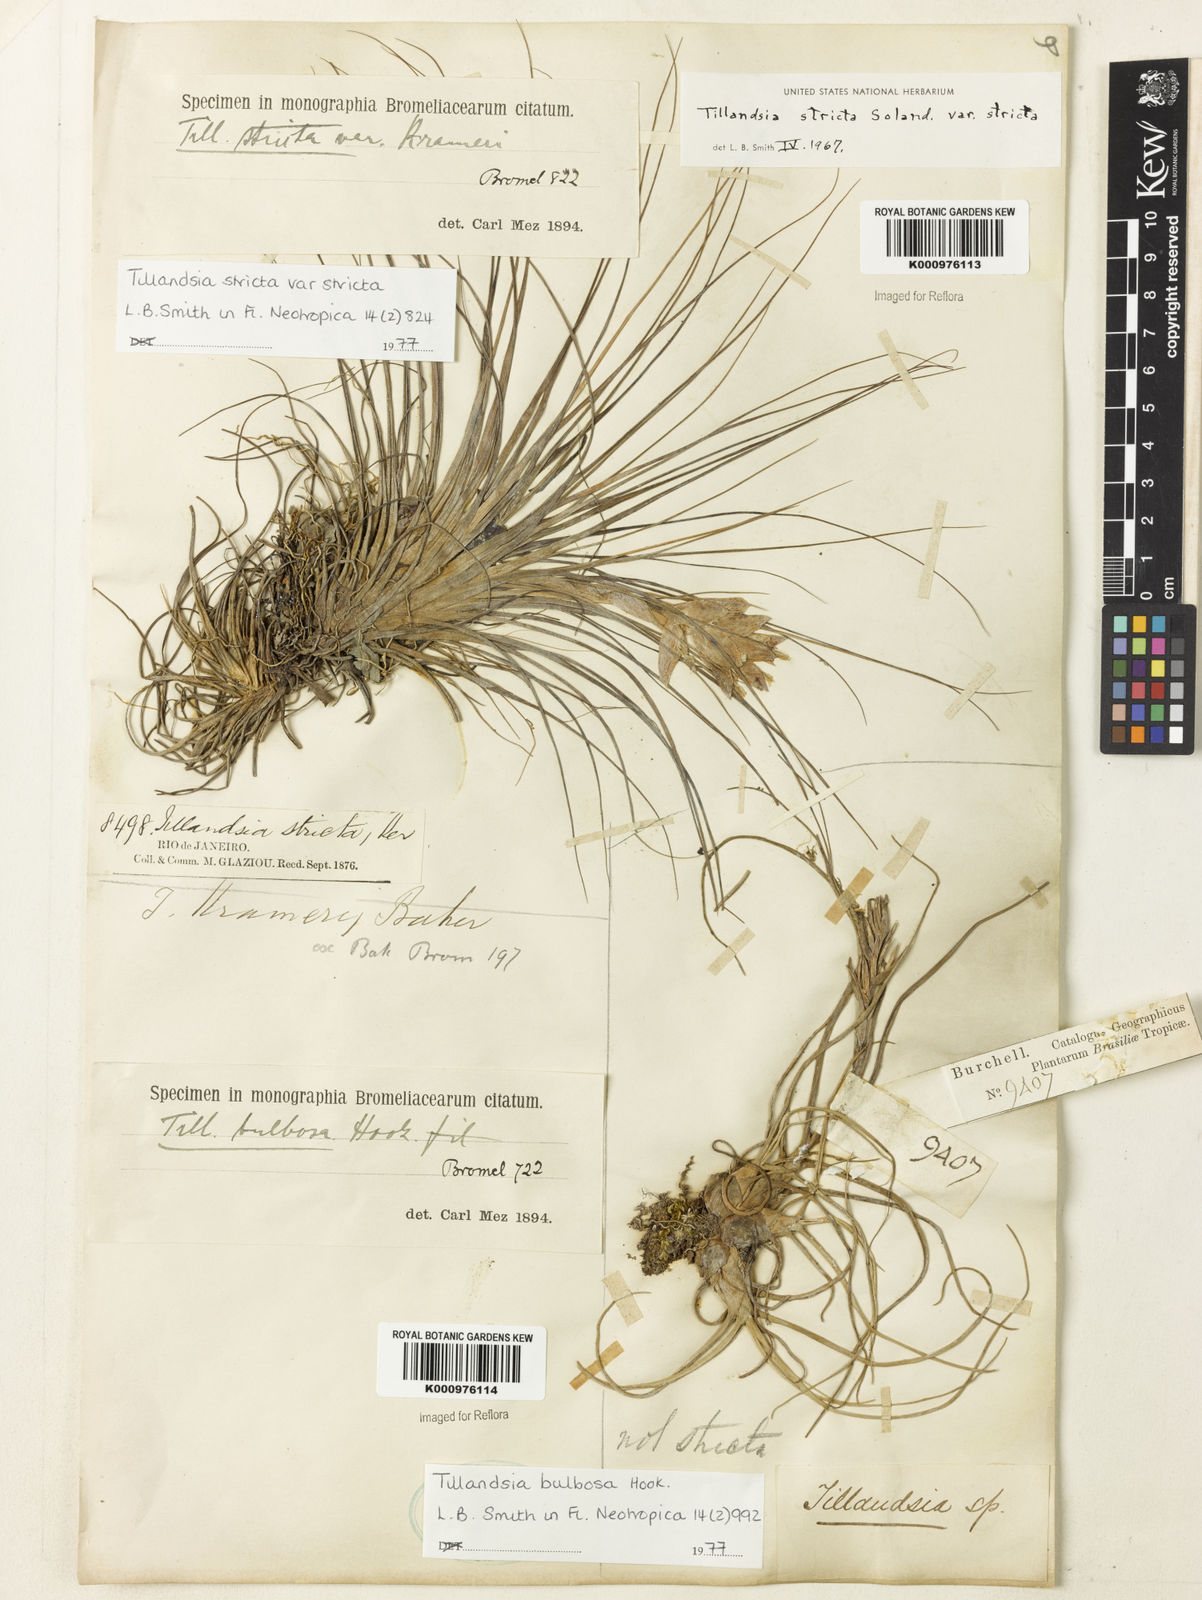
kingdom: Plantae
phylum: Tracheophyta
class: Liliopsida
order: Poales
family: Bromeliaceae
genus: Tillandsia
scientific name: Tillandsia stricta
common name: Airplant
